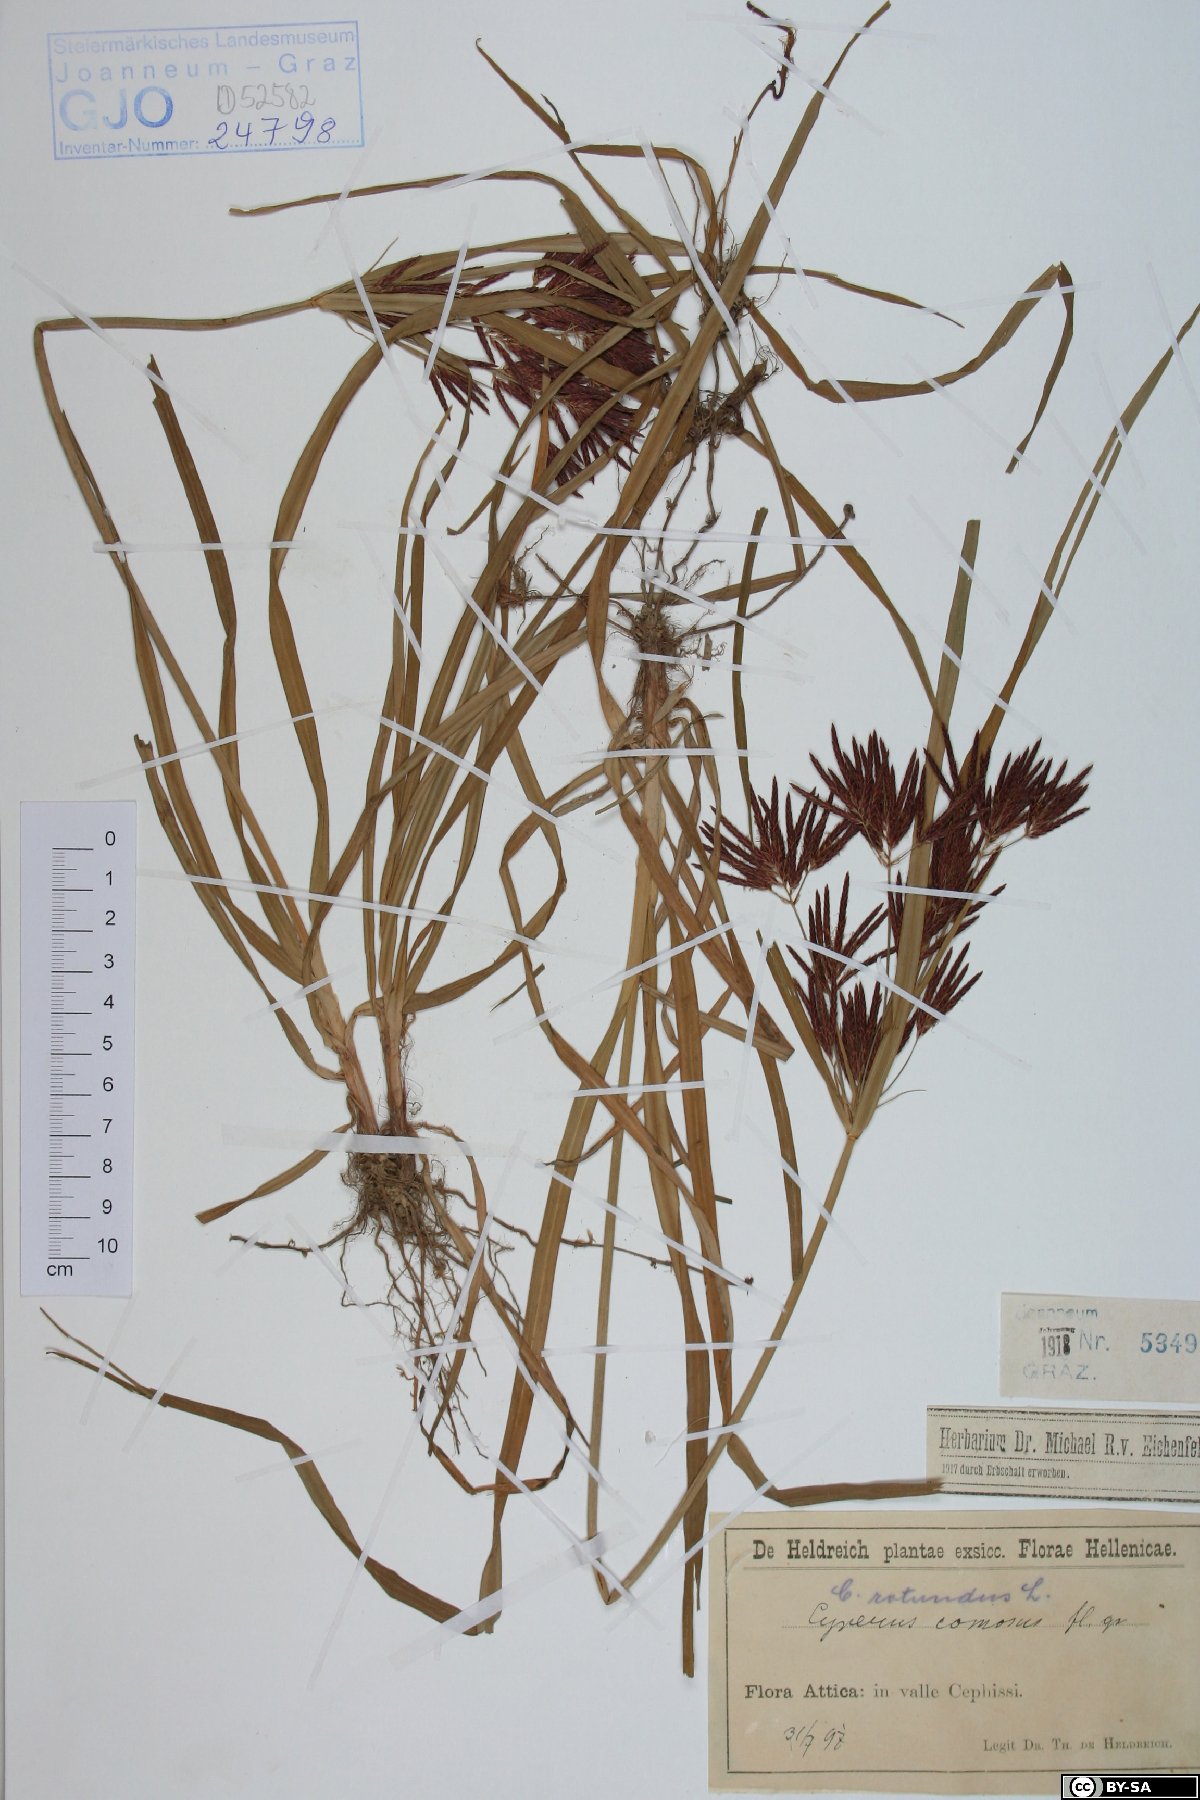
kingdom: Plantae
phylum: Tracheophyta
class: Liliopsida
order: Poales
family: Cyperaceae
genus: Cyperus
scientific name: Cyperus rotundus
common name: Nutgrass
